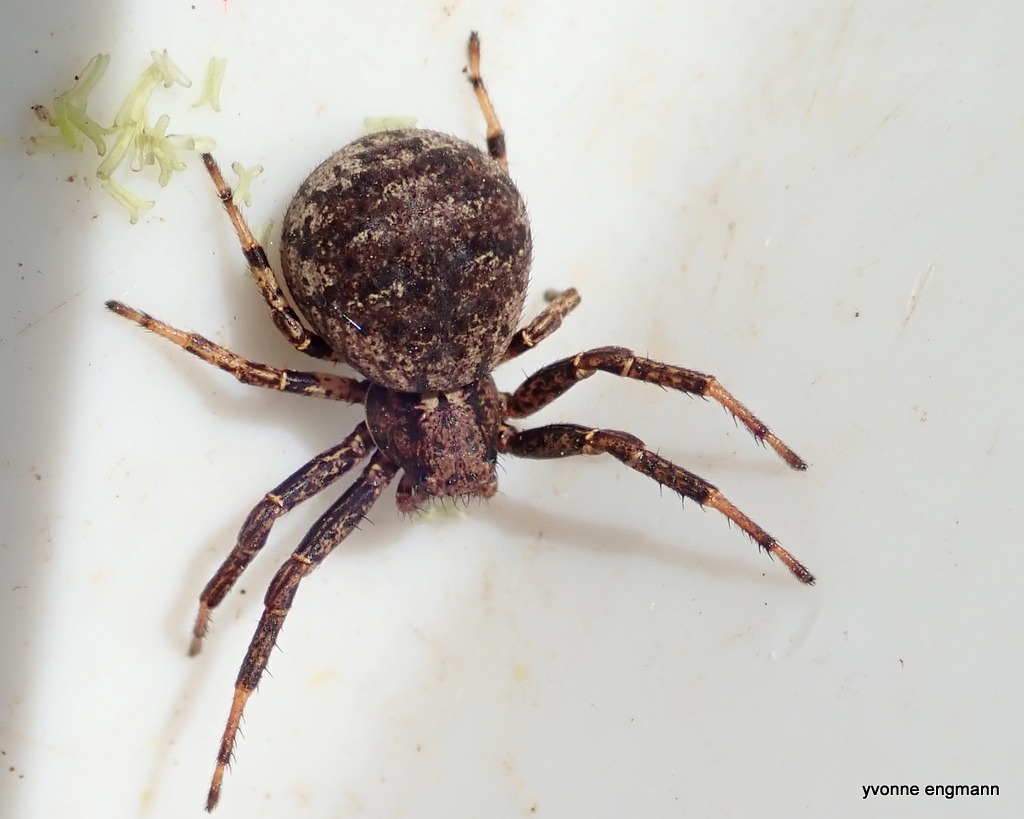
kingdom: Animalia
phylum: Arthropoda
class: Arachnida
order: Araneae
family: Thomisidae
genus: Xysticus
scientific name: Xysticus luctuosus
